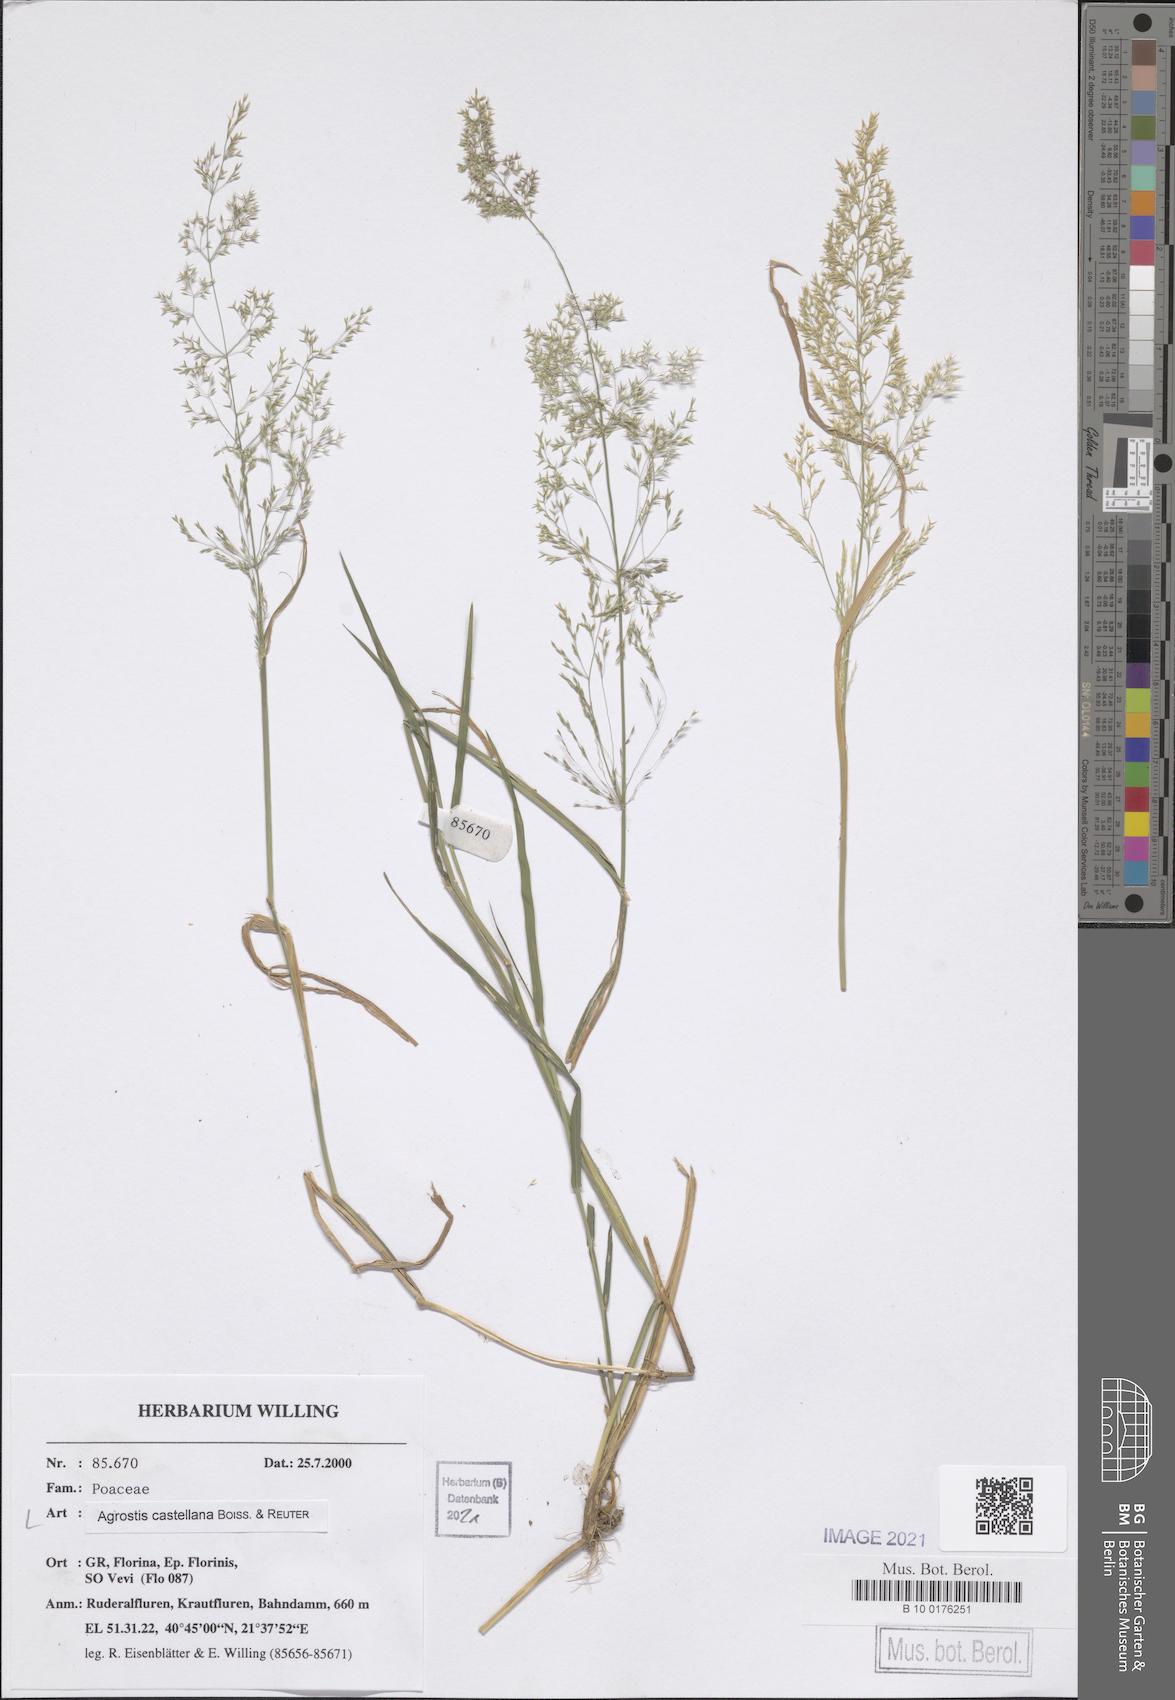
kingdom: Plantae
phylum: Tracheophyta
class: Liliopsida
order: Poales
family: Poaceae
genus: Agrostis
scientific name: Agrostis castellana
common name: Highland bent
